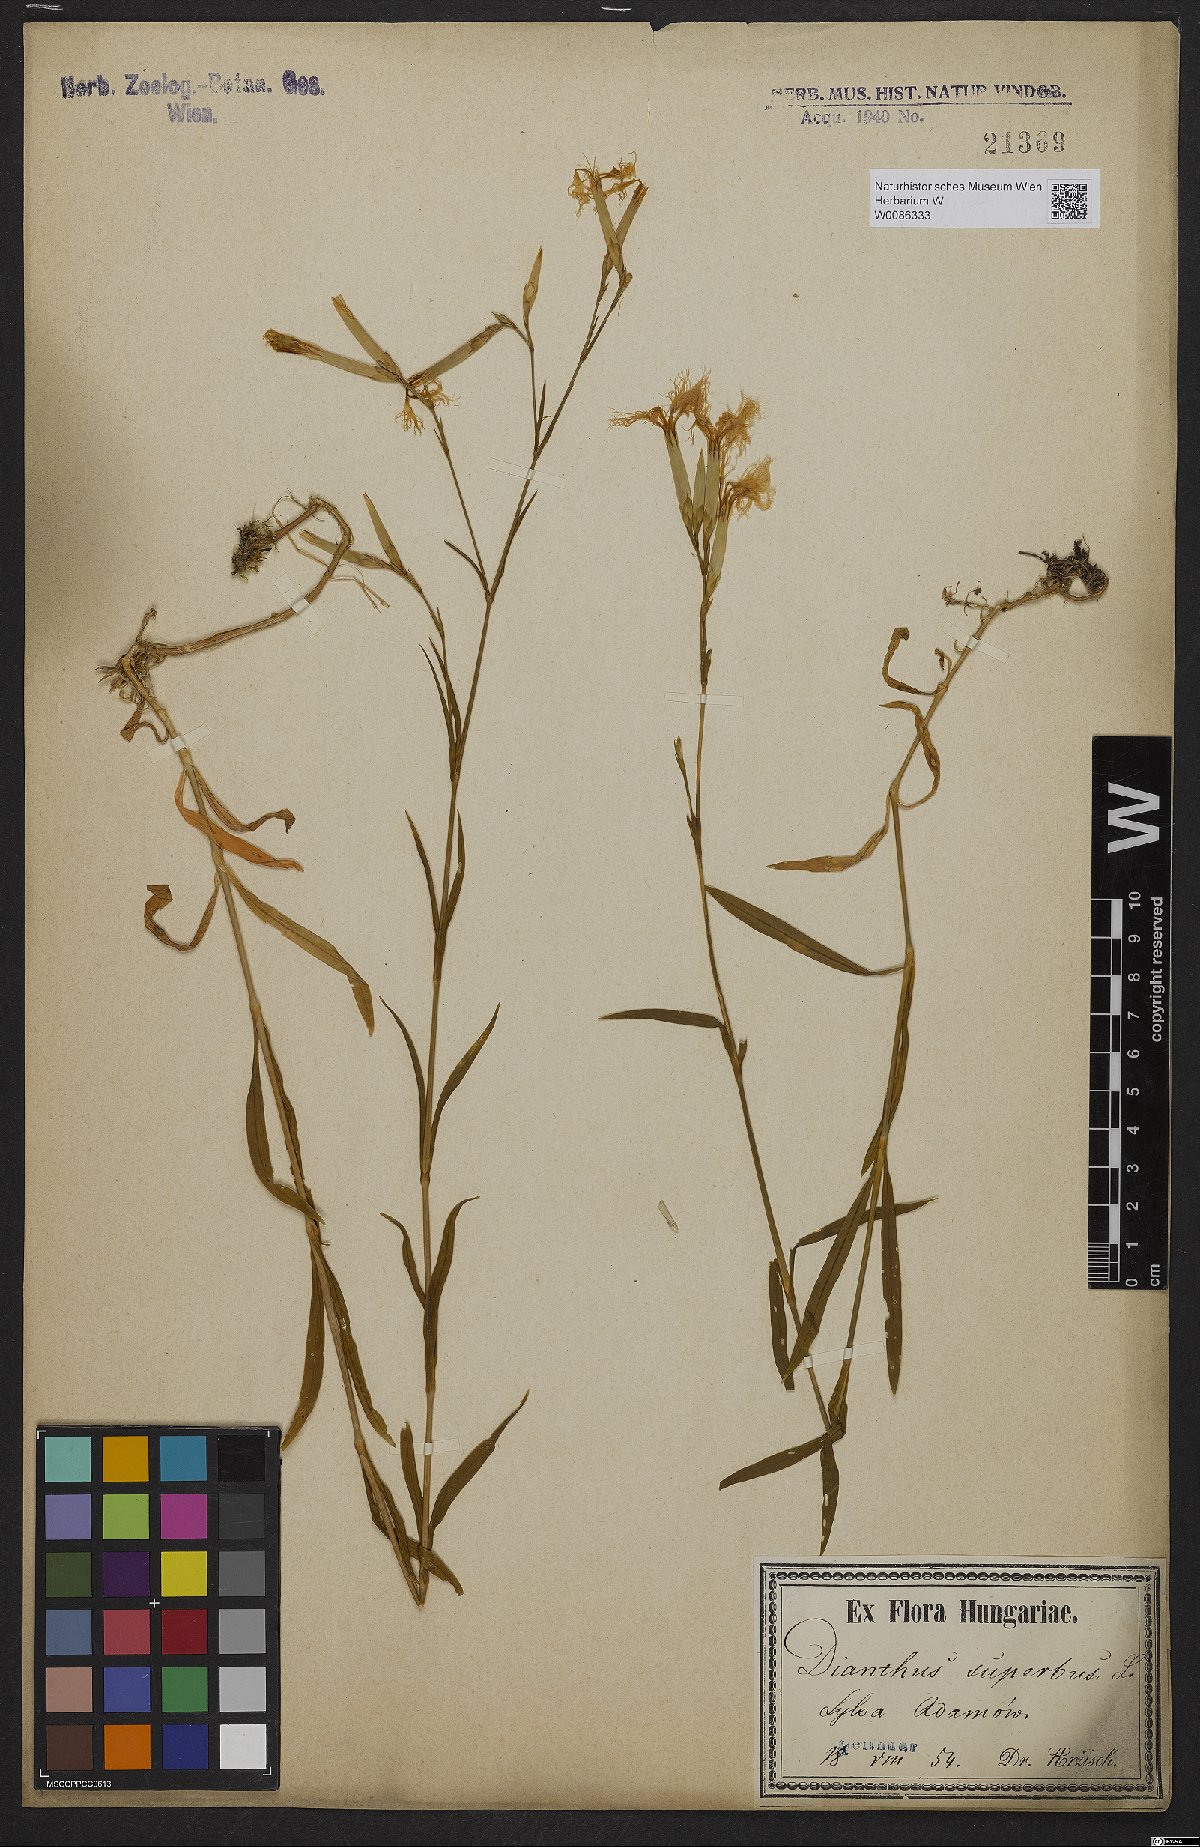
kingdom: Plantae
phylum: Tracheophyta
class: Magnoliopsida
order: Caryophyllales
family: Caryophyllaceae
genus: Dianthus
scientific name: Dianthus superbus
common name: Fringed pink
